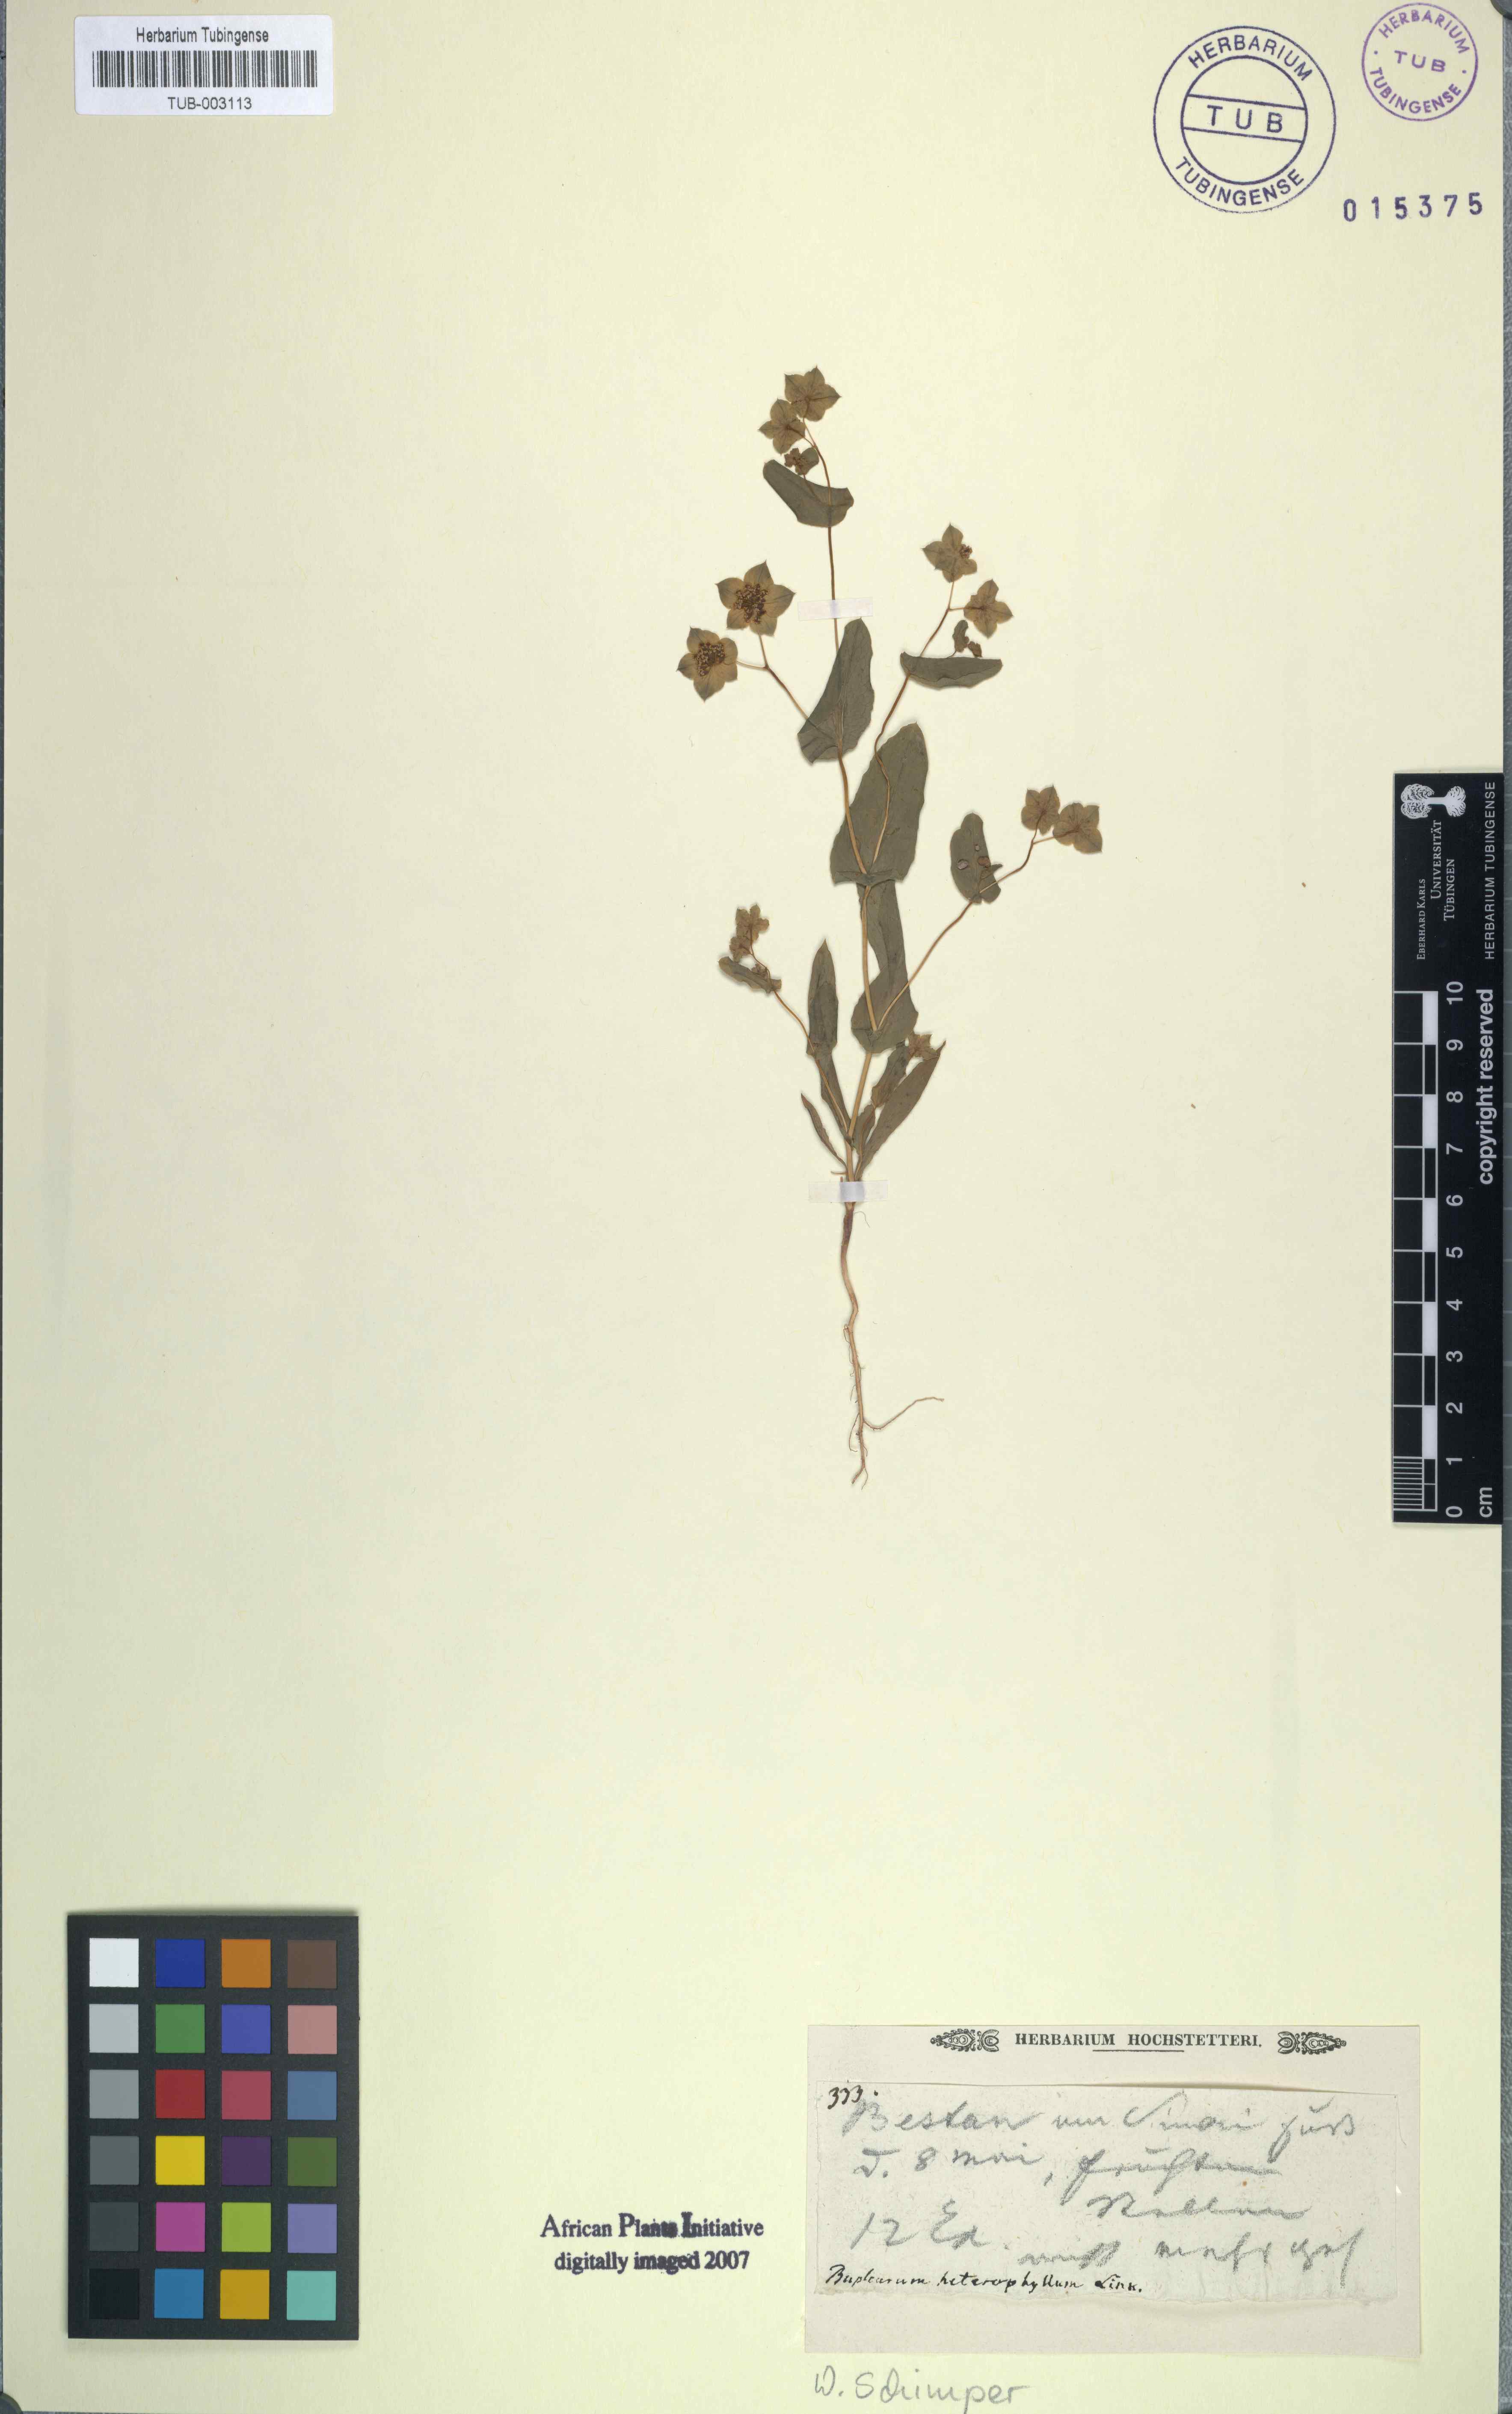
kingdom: Plantae
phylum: Tracheophyta
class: Magnoliopsida
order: Apiales
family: Apiaceae
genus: Bupleurum
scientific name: Bupleurum lancifolium
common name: False thorow-wax
